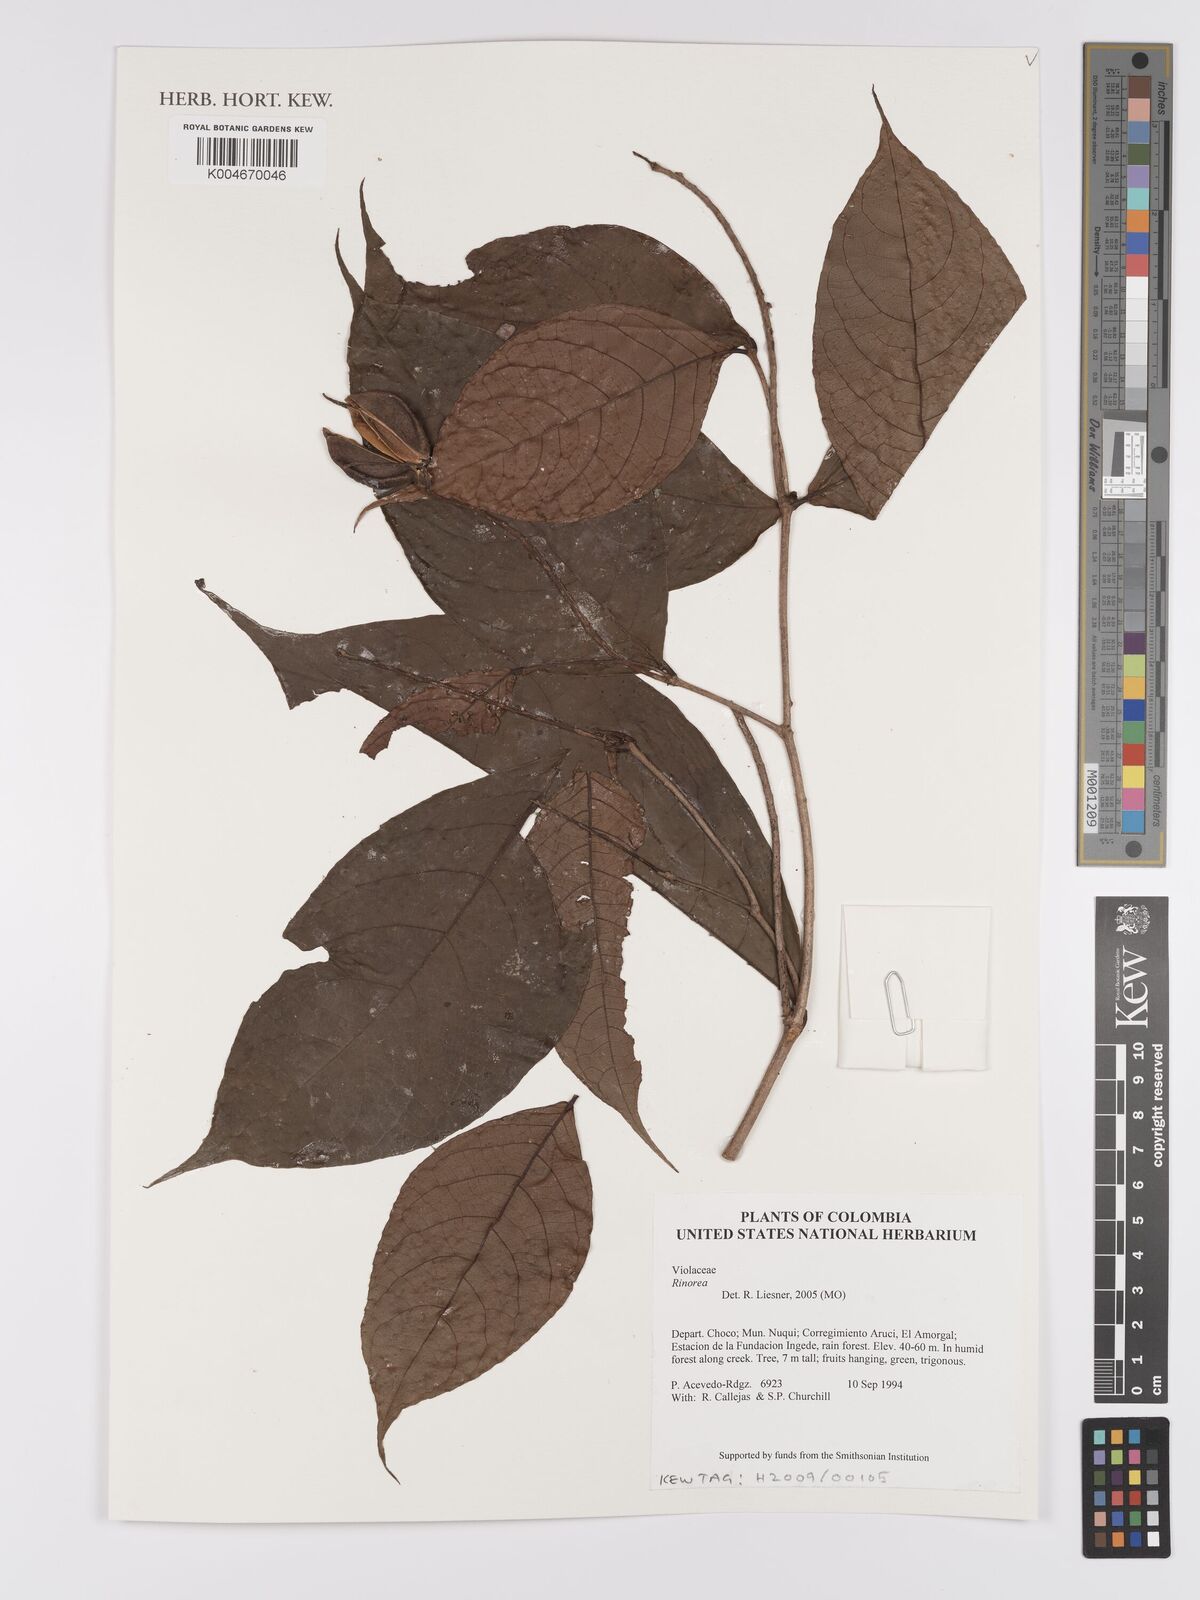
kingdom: Plantae
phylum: Tracheophyta
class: Magnoliopsida
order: Malpighiales
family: Violaceae
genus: Rinorea
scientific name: Rinorea
